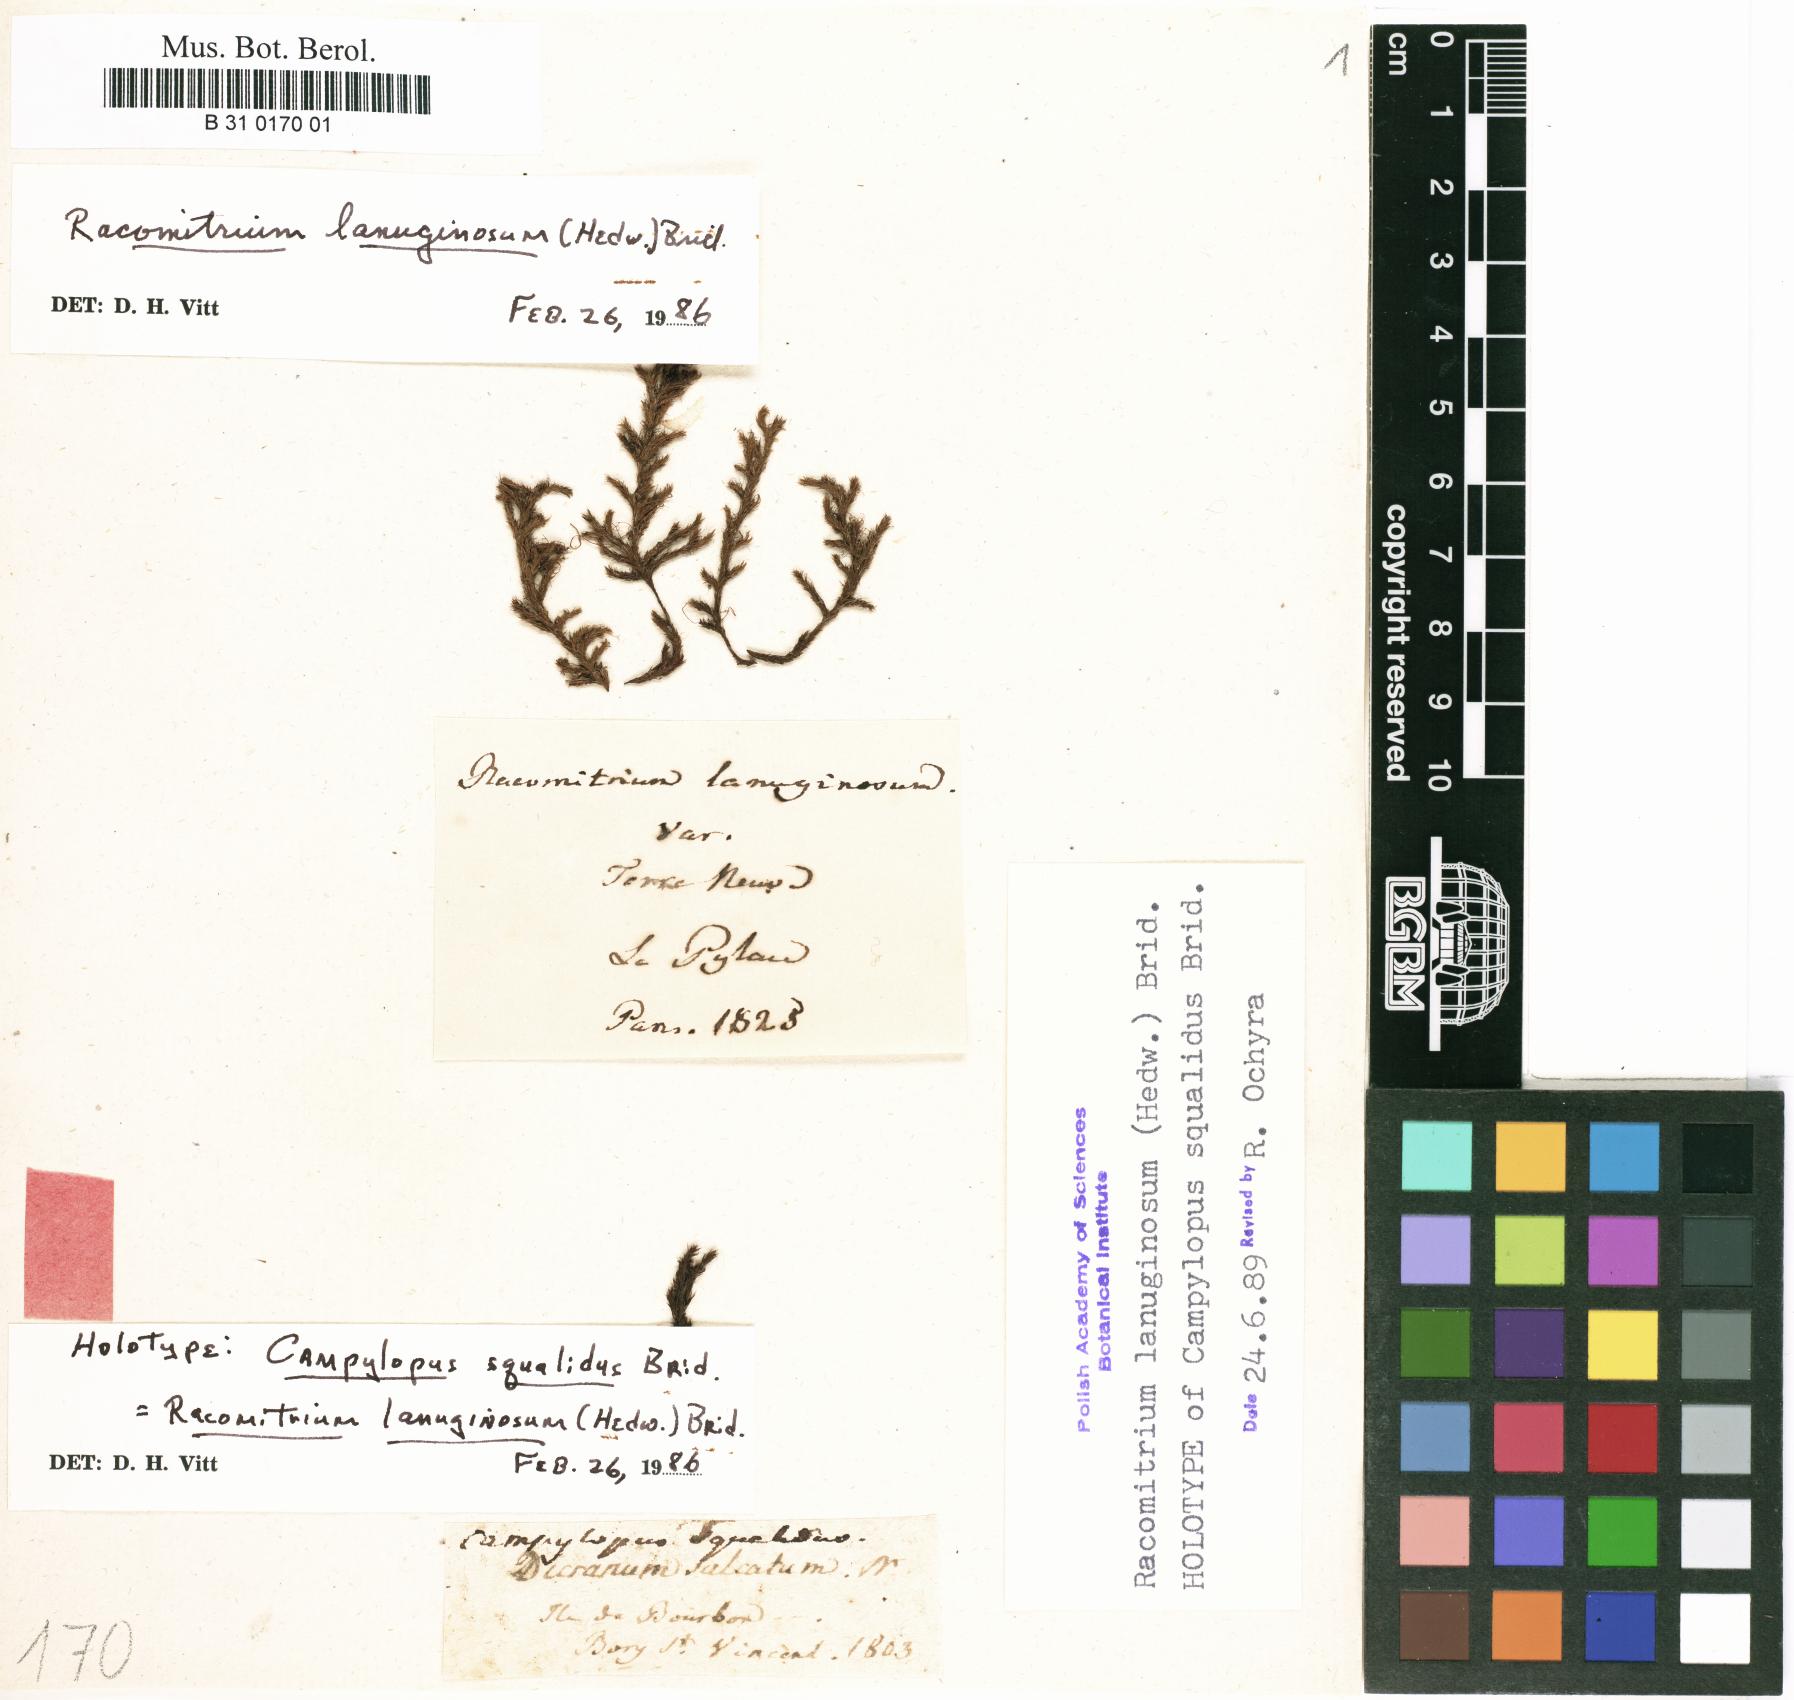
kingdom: Plantae
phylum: Bryophyta
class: Bryopsida
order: Grimmiales
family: Grimmiaceae
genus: Racomitrium
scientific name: Racomitrium lanuginosum
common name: Hoary rock moss
